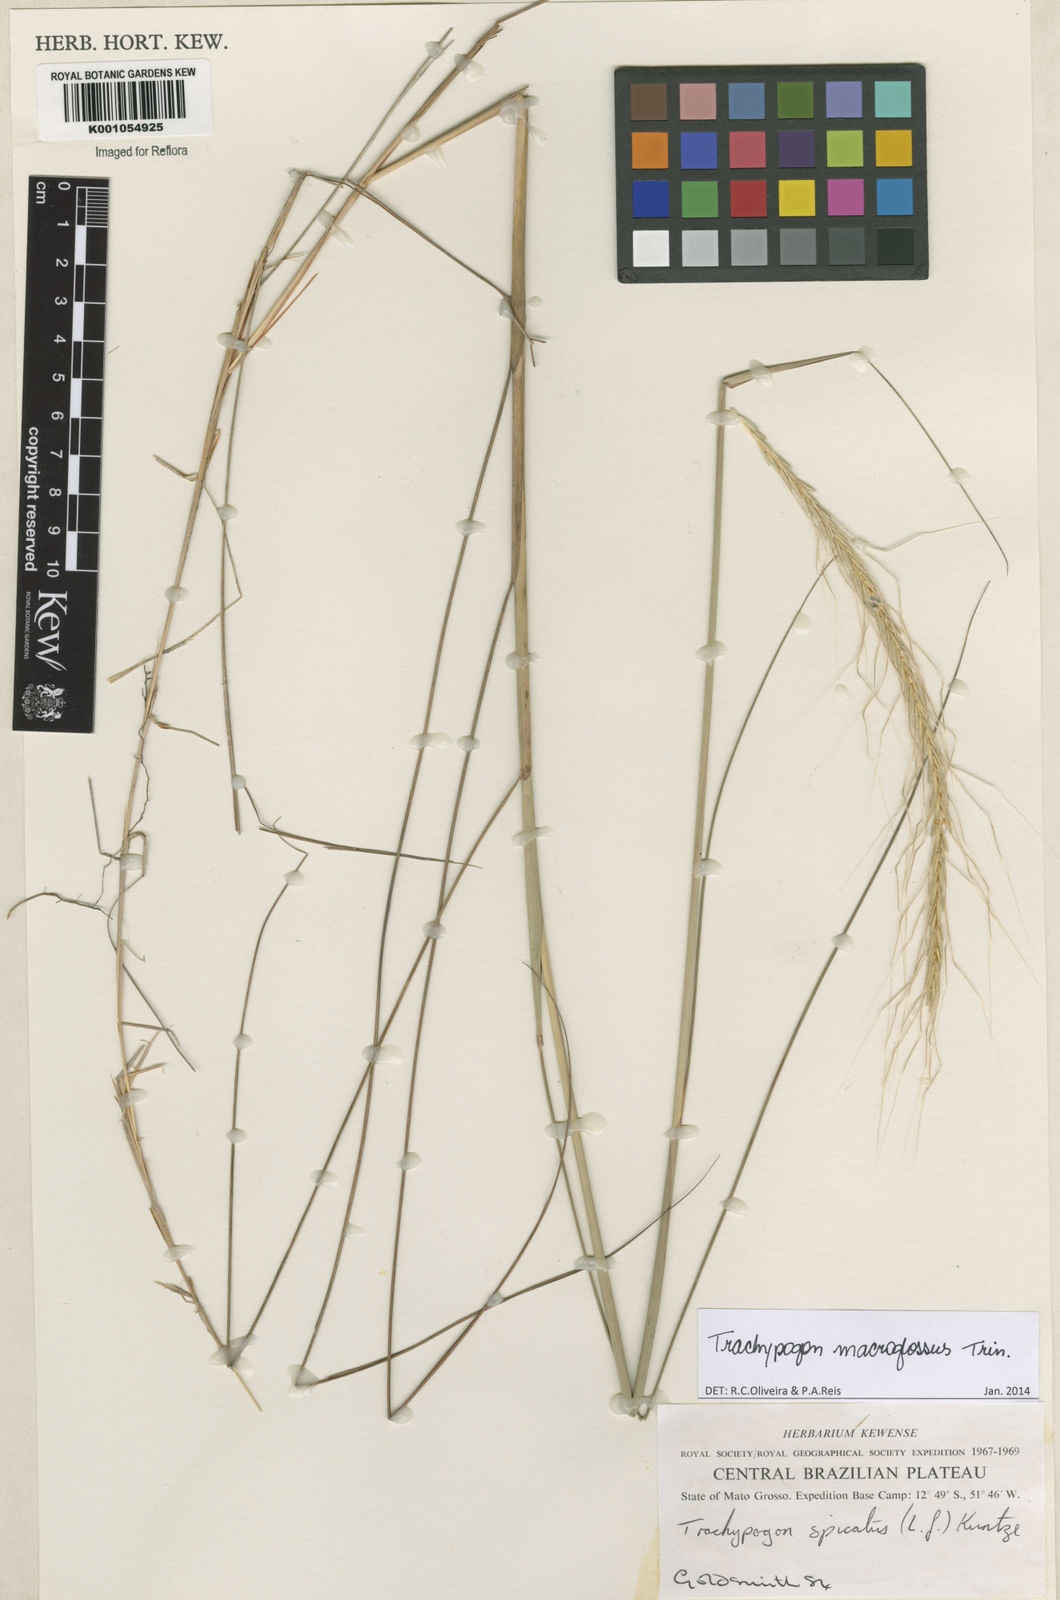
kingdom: Plantae
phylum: Tracheophyta
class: Liliopsida
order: Poales
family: Poaceae
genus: Trachypogon
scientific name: Trachypogon macroglossus
